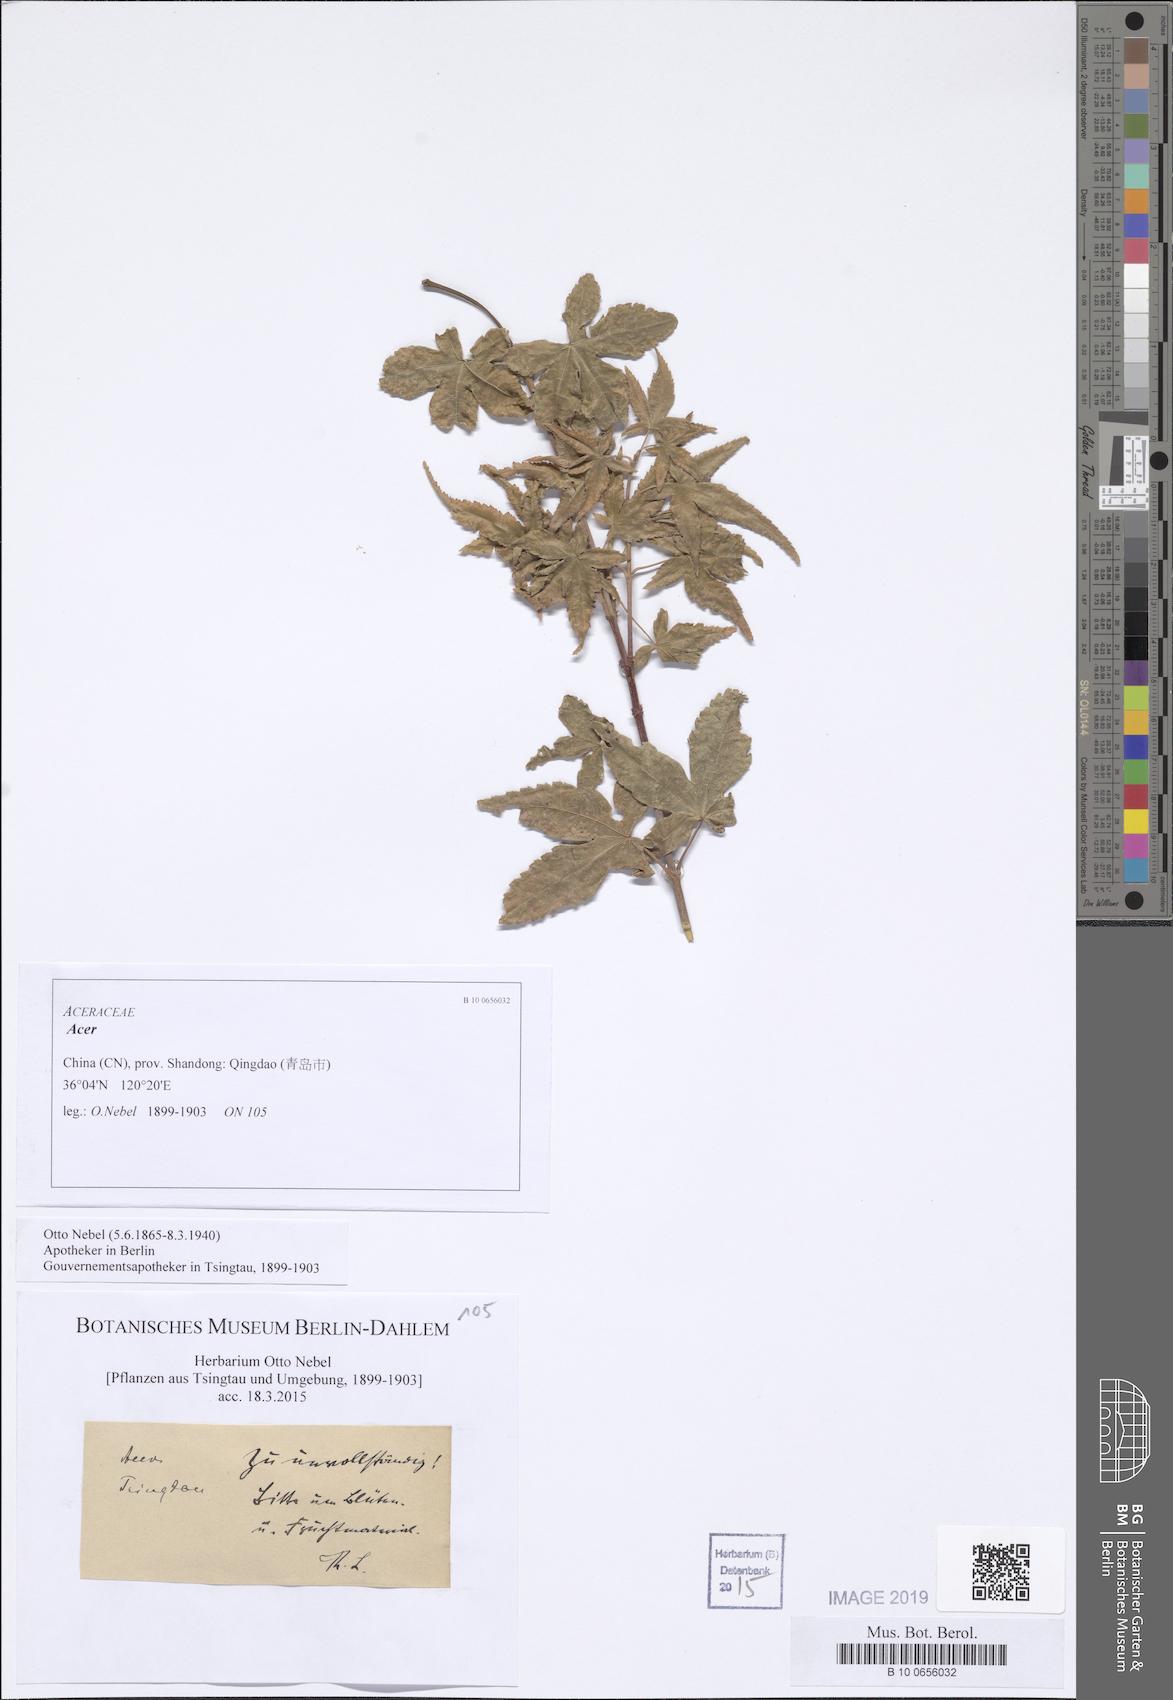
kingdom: Plantae
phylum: Tracheophyta
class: Magnoliopsida
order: Sapindales
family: Sapindaceae
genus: Acer
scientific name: Acer
